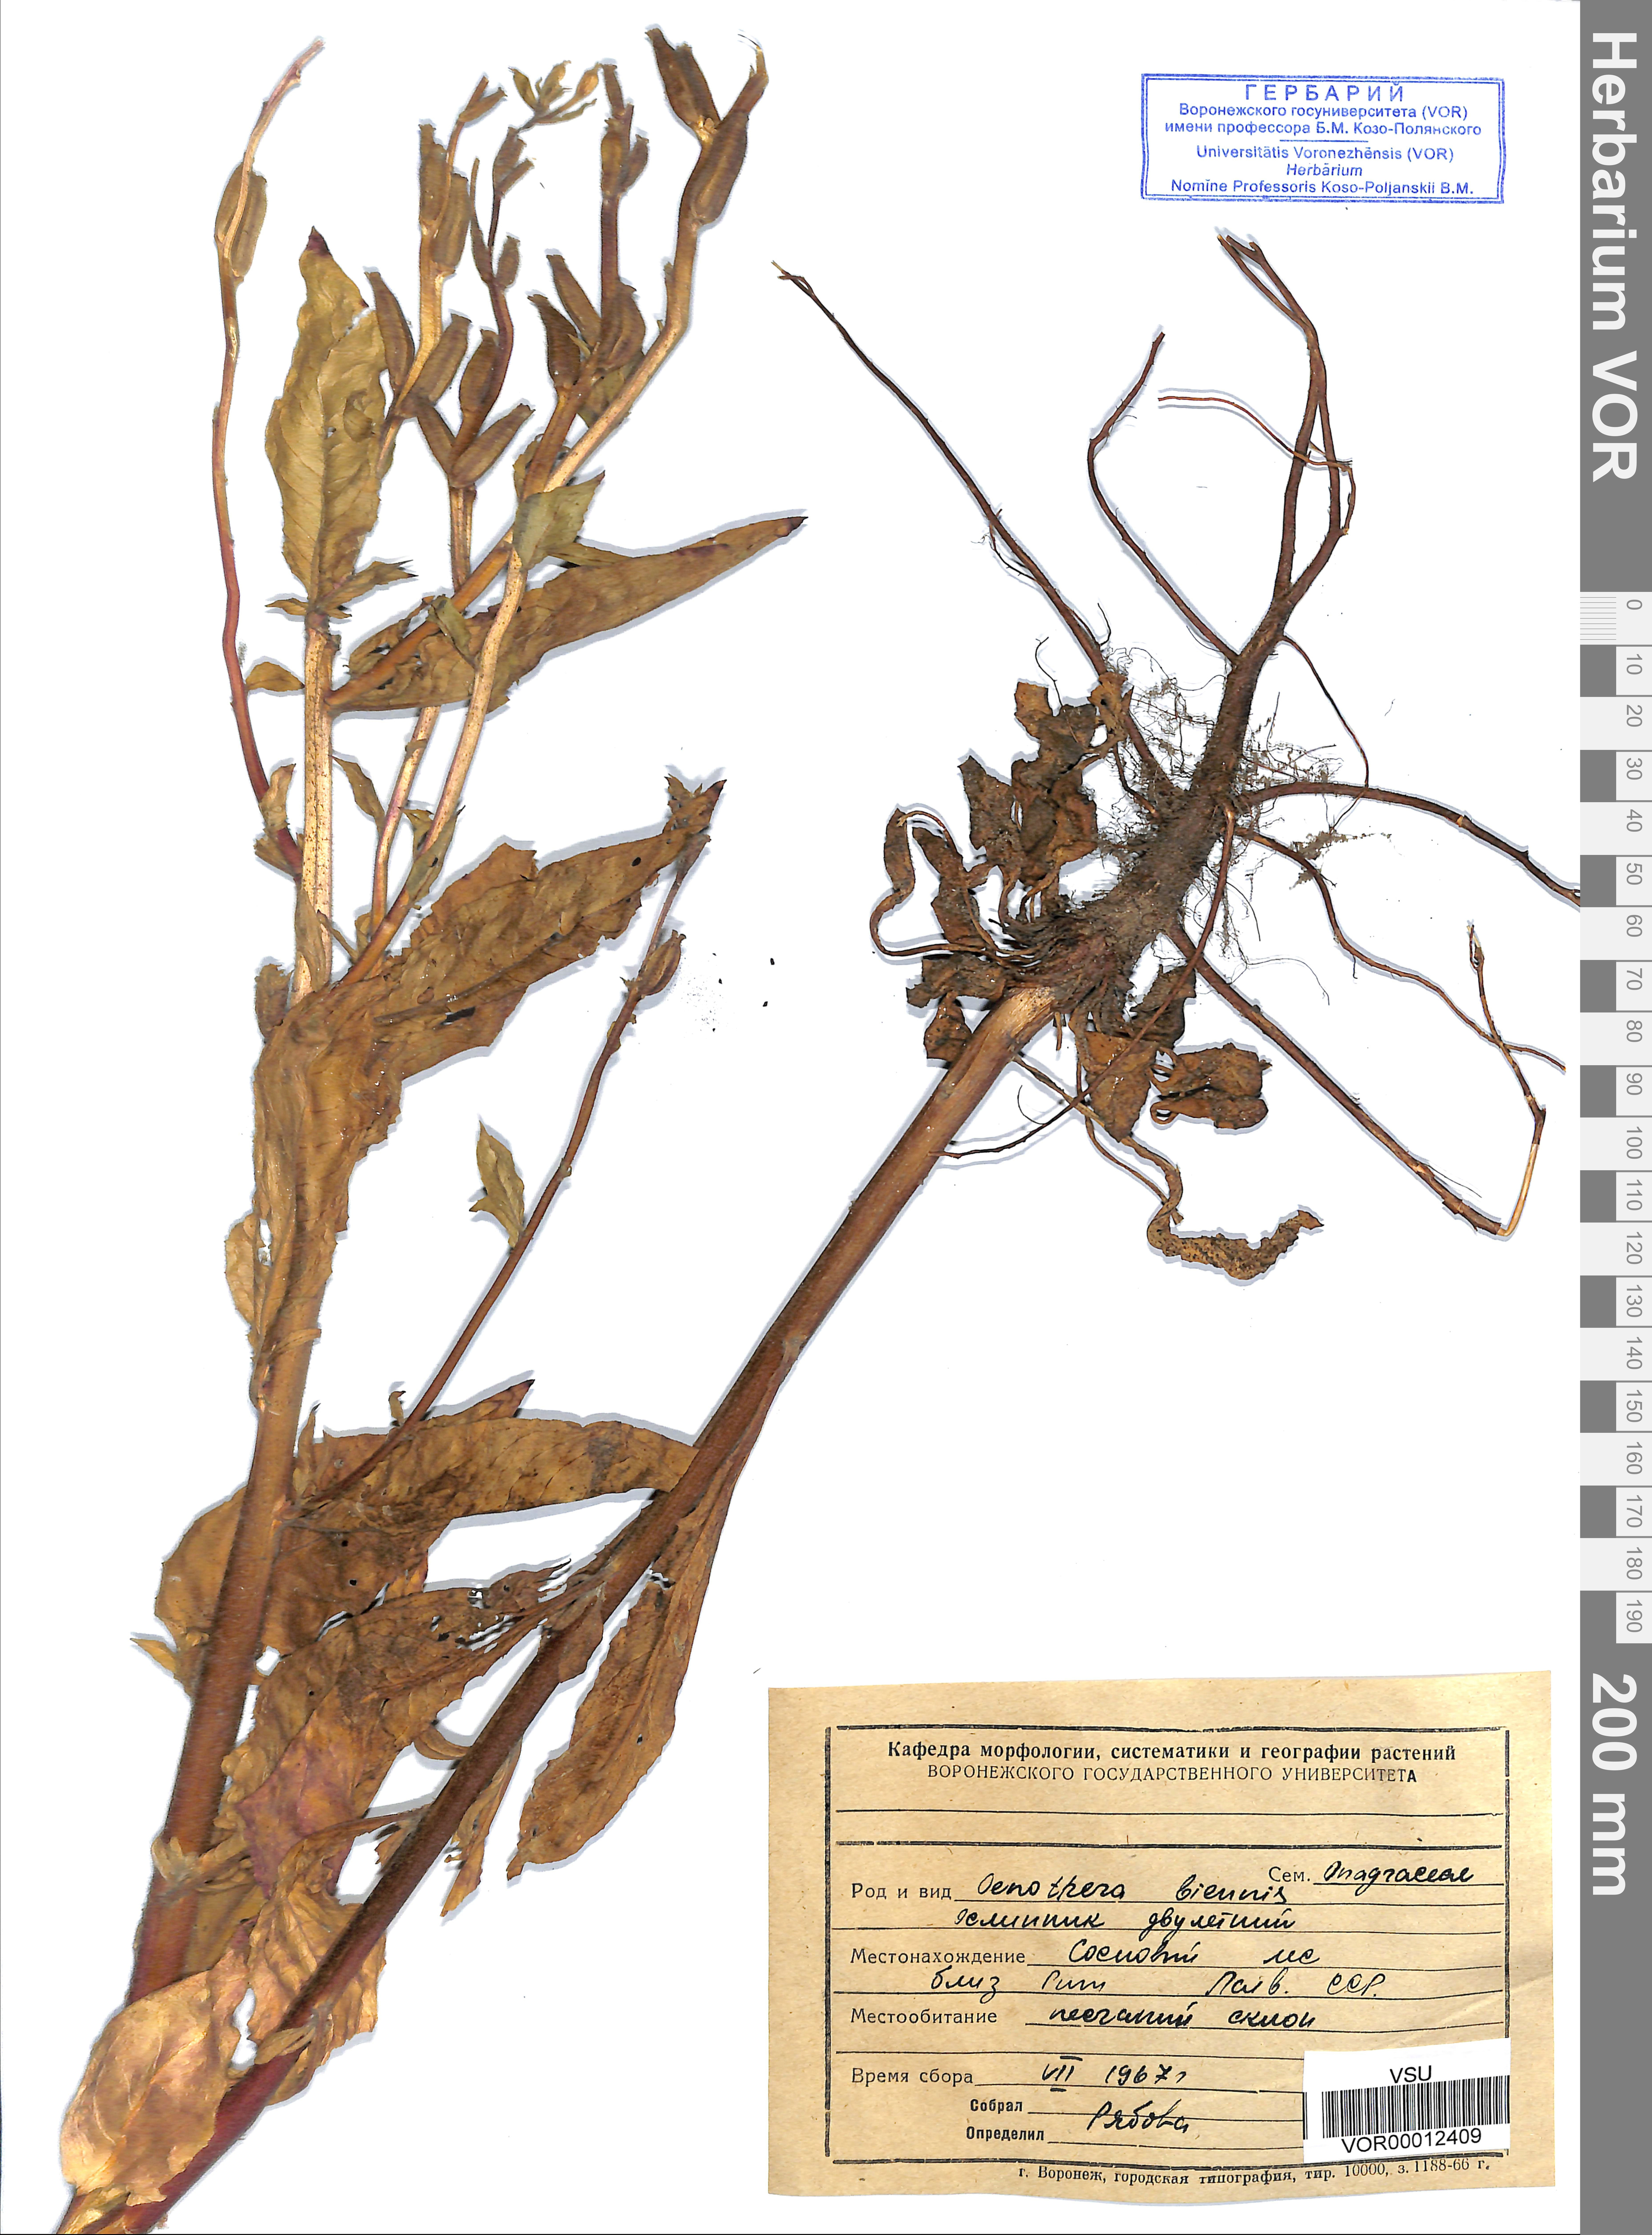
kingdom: Plantae
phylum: Tracheophyta
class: Magnoliopsida
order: Myrtales
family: Onagraceae
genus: Oenothera
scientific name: Oenothera biennis
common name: Common evening-primrose
